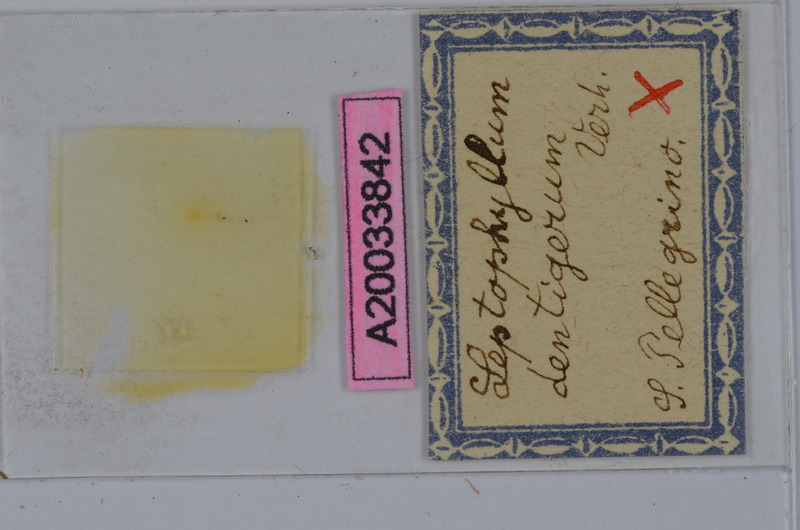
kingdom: Animalia
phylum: Arthropoda
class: Diplopoda
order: Julida
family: Julidae
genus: Enantiulus
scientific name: Enantiulus dentigerus
